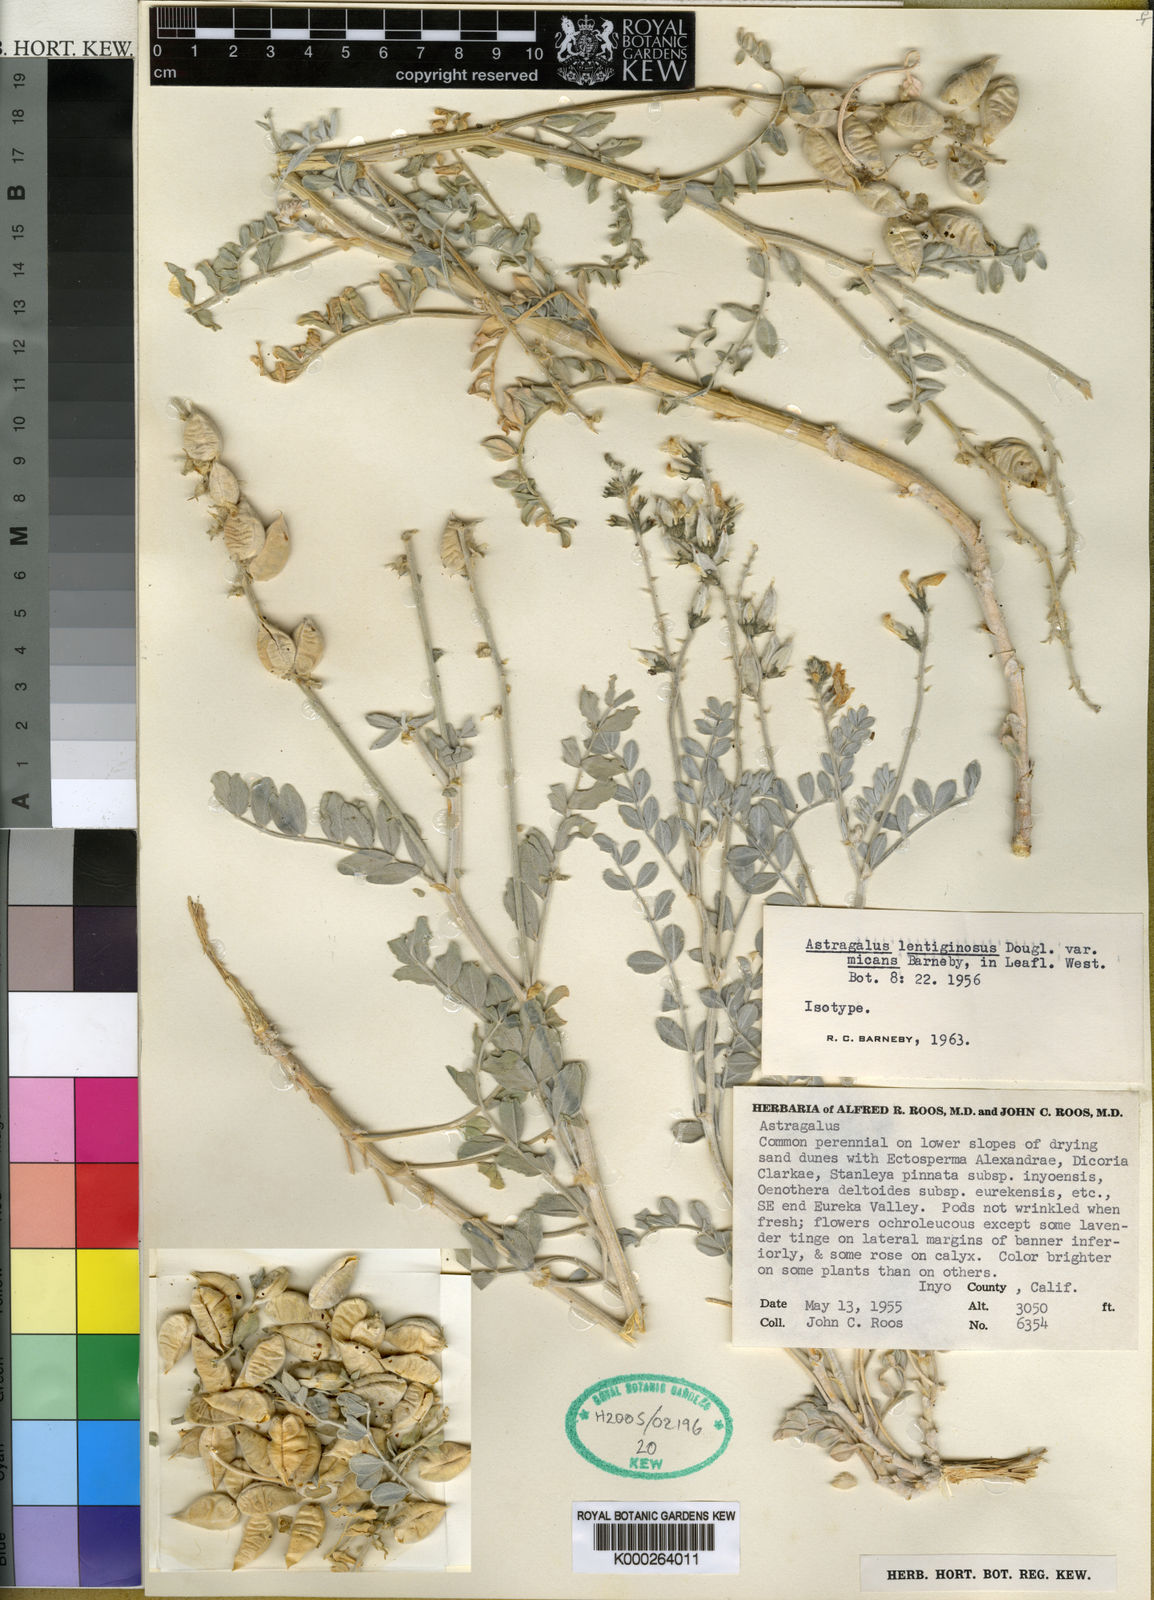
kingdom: Plantae
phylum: Tracheophyta
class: Magnoliopsida
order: Fabales
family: Fabaceae
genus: Astragalus
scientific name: Astragalus lentiginosus
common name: Freckled milkvetch
